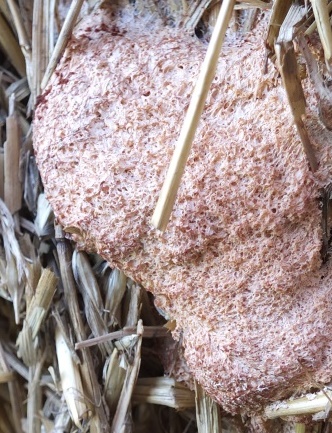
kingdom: Protozoa
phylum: Mycetozoa
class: Myxomycetes
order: Physarales
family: Physaraceae
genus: Fuligo
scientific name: Fuligo septica
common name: Dog vomit slime mold
